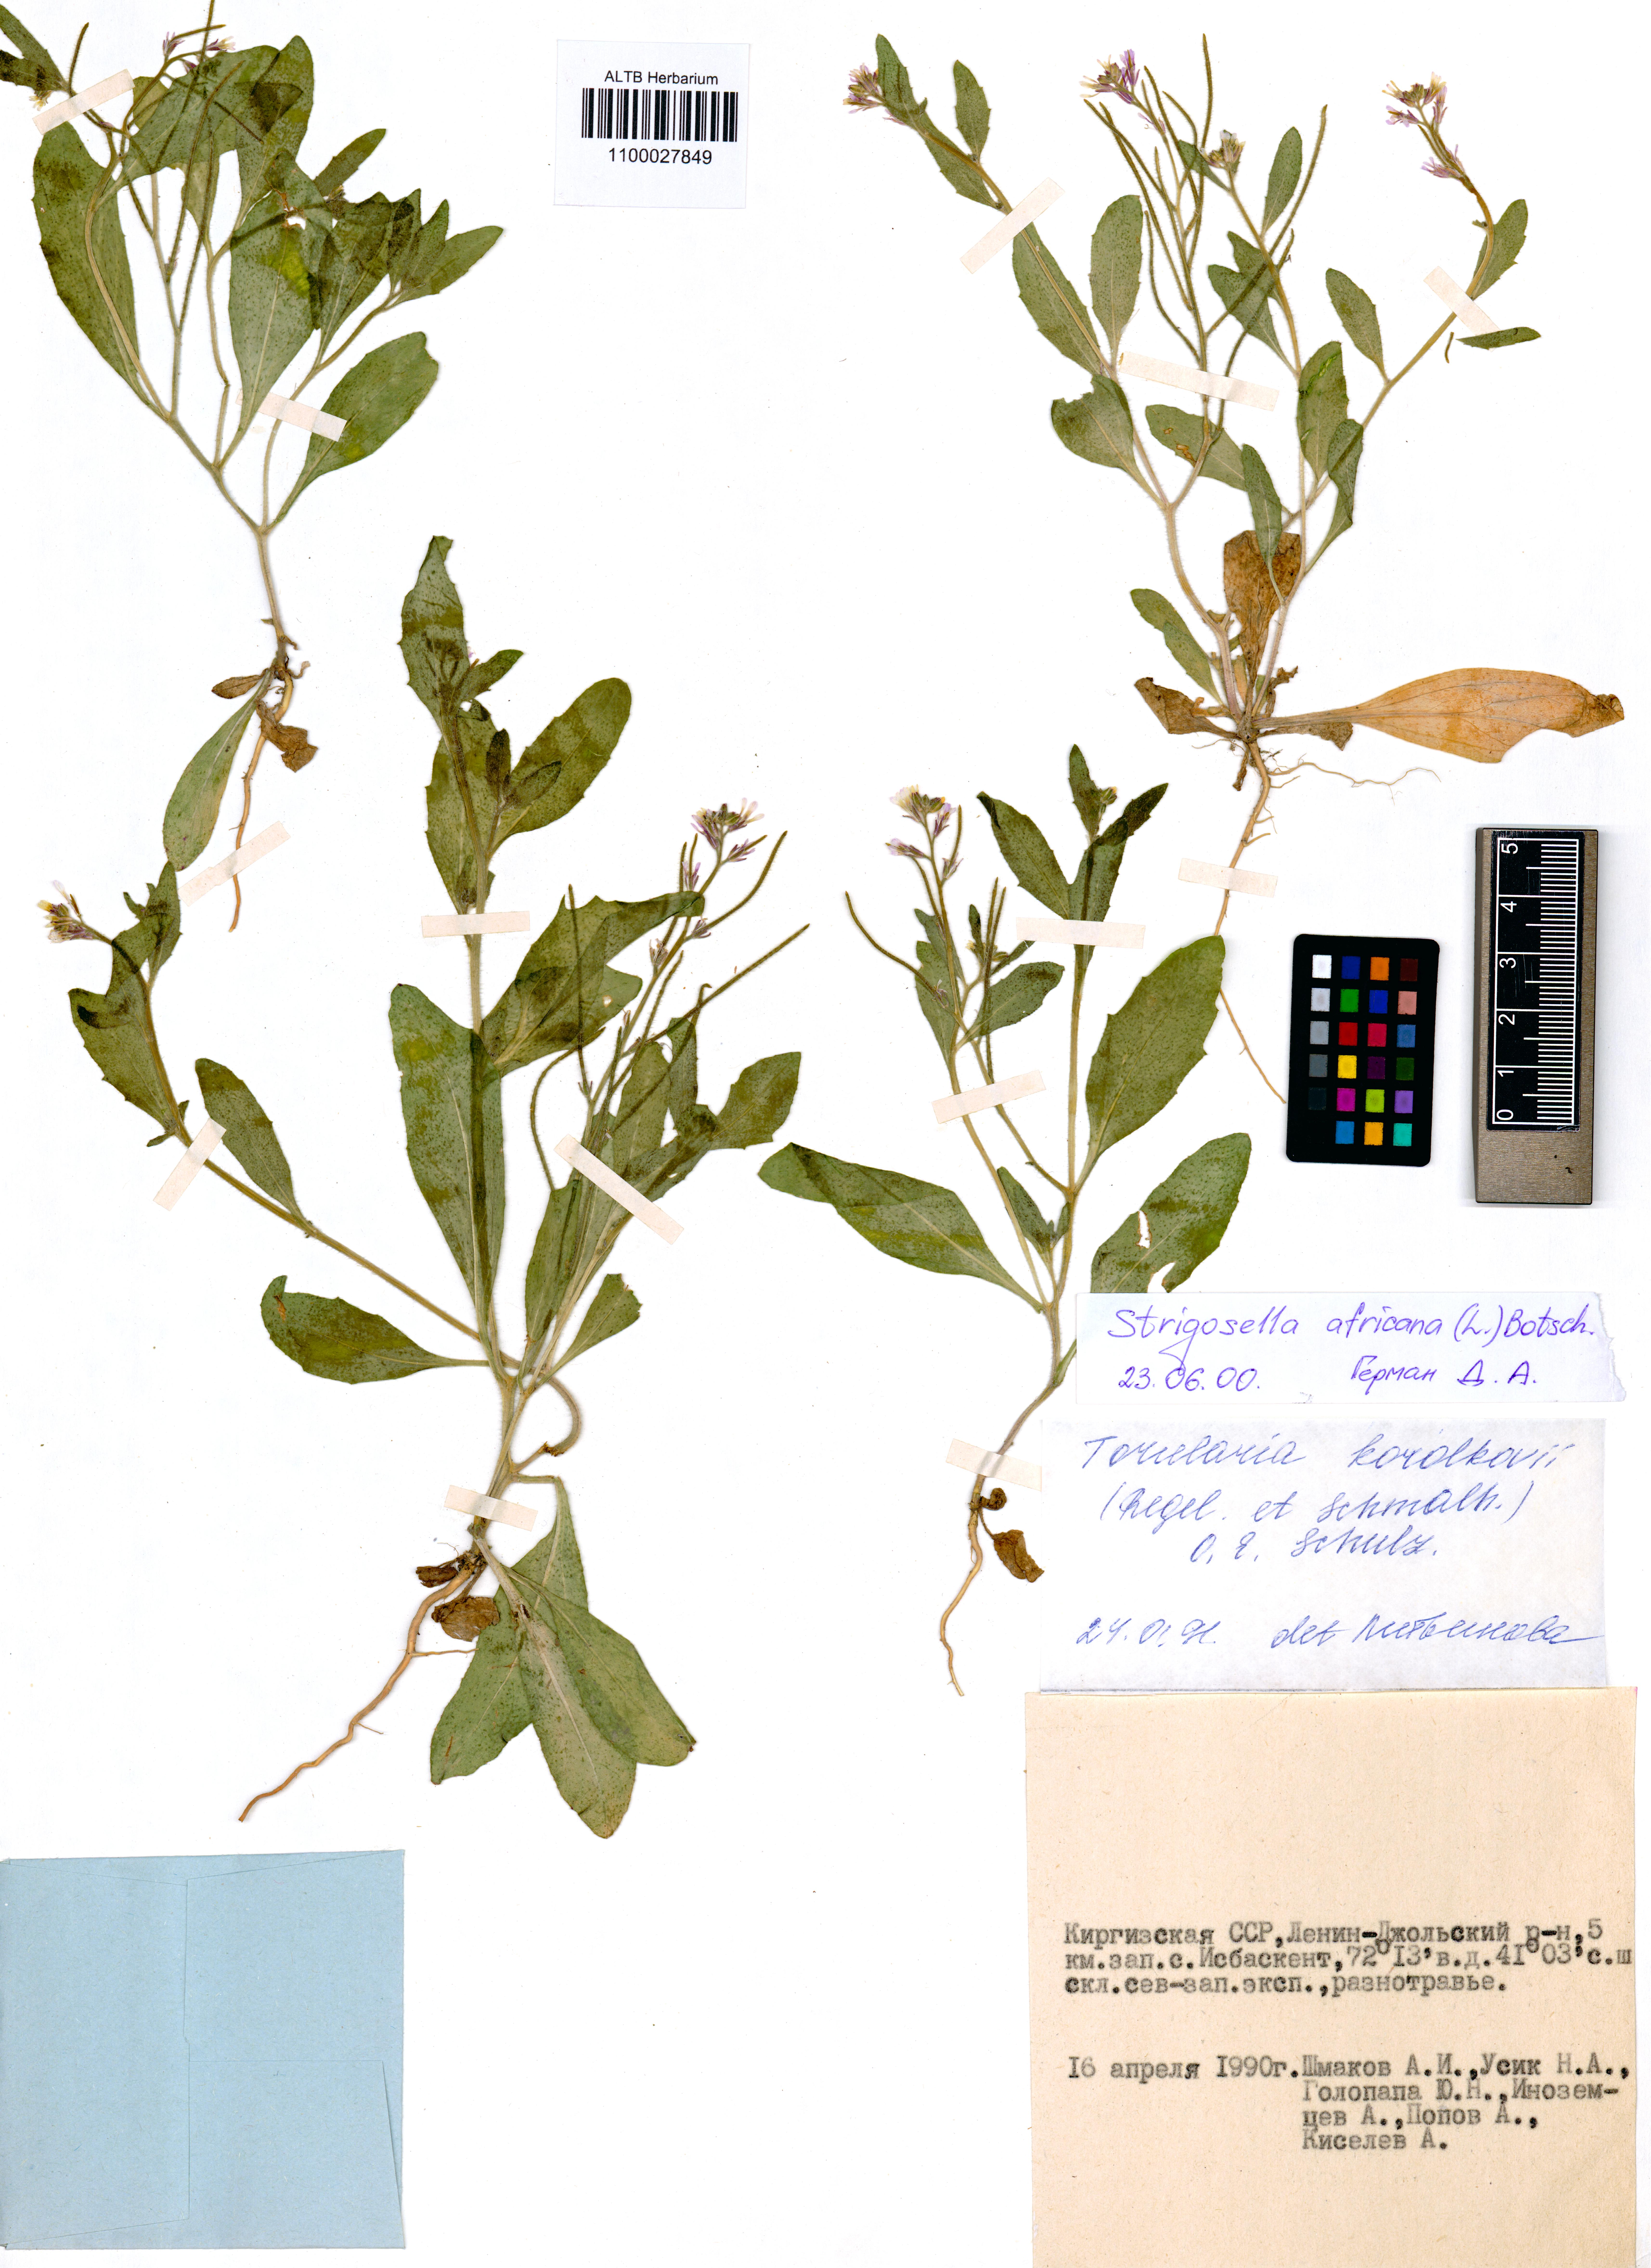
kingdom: Plantae
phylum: Tracheophyta
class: Magnoliopsida
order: Brassicales
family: Brassicaceae
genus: Strigosella
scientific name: Strigosella intermedia
